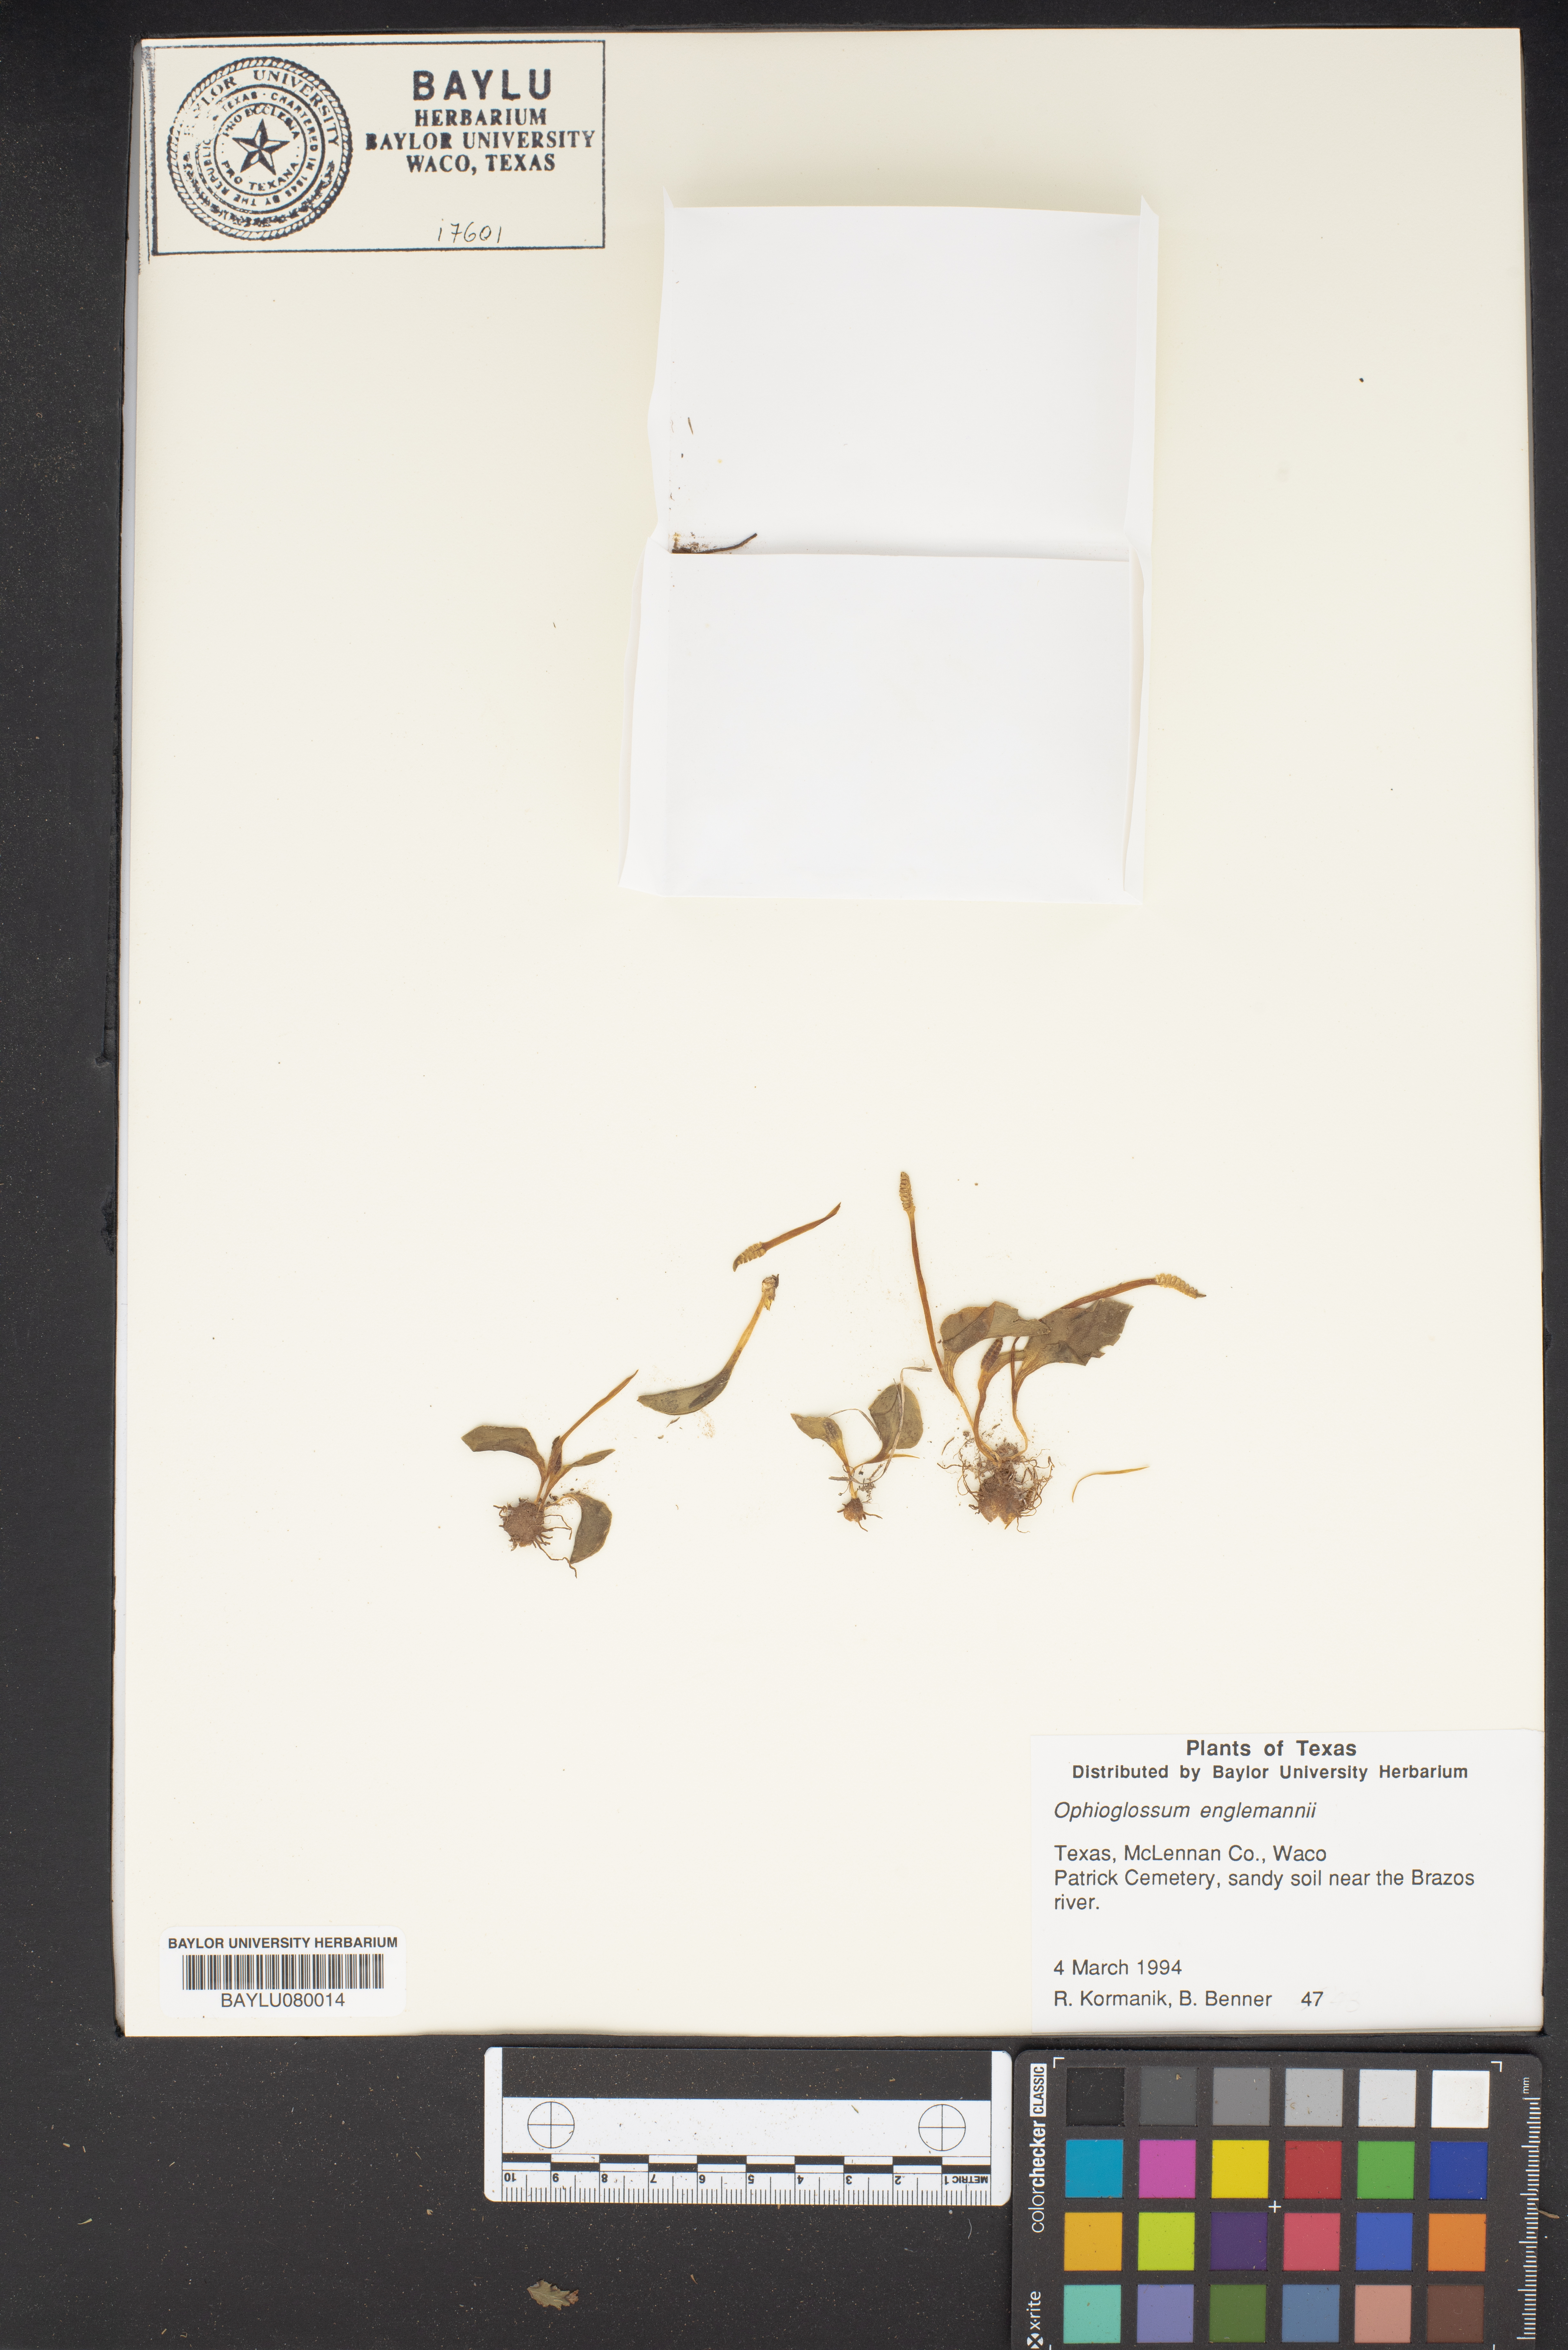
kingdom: Plantae
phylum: Tracheophyta
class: Polypodiopsida
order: Ophioglossales
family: Ophioglossaceae
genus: Ophioglossum
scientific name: Ophioglossum engelmannii
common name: Limestone adder's-tongue
